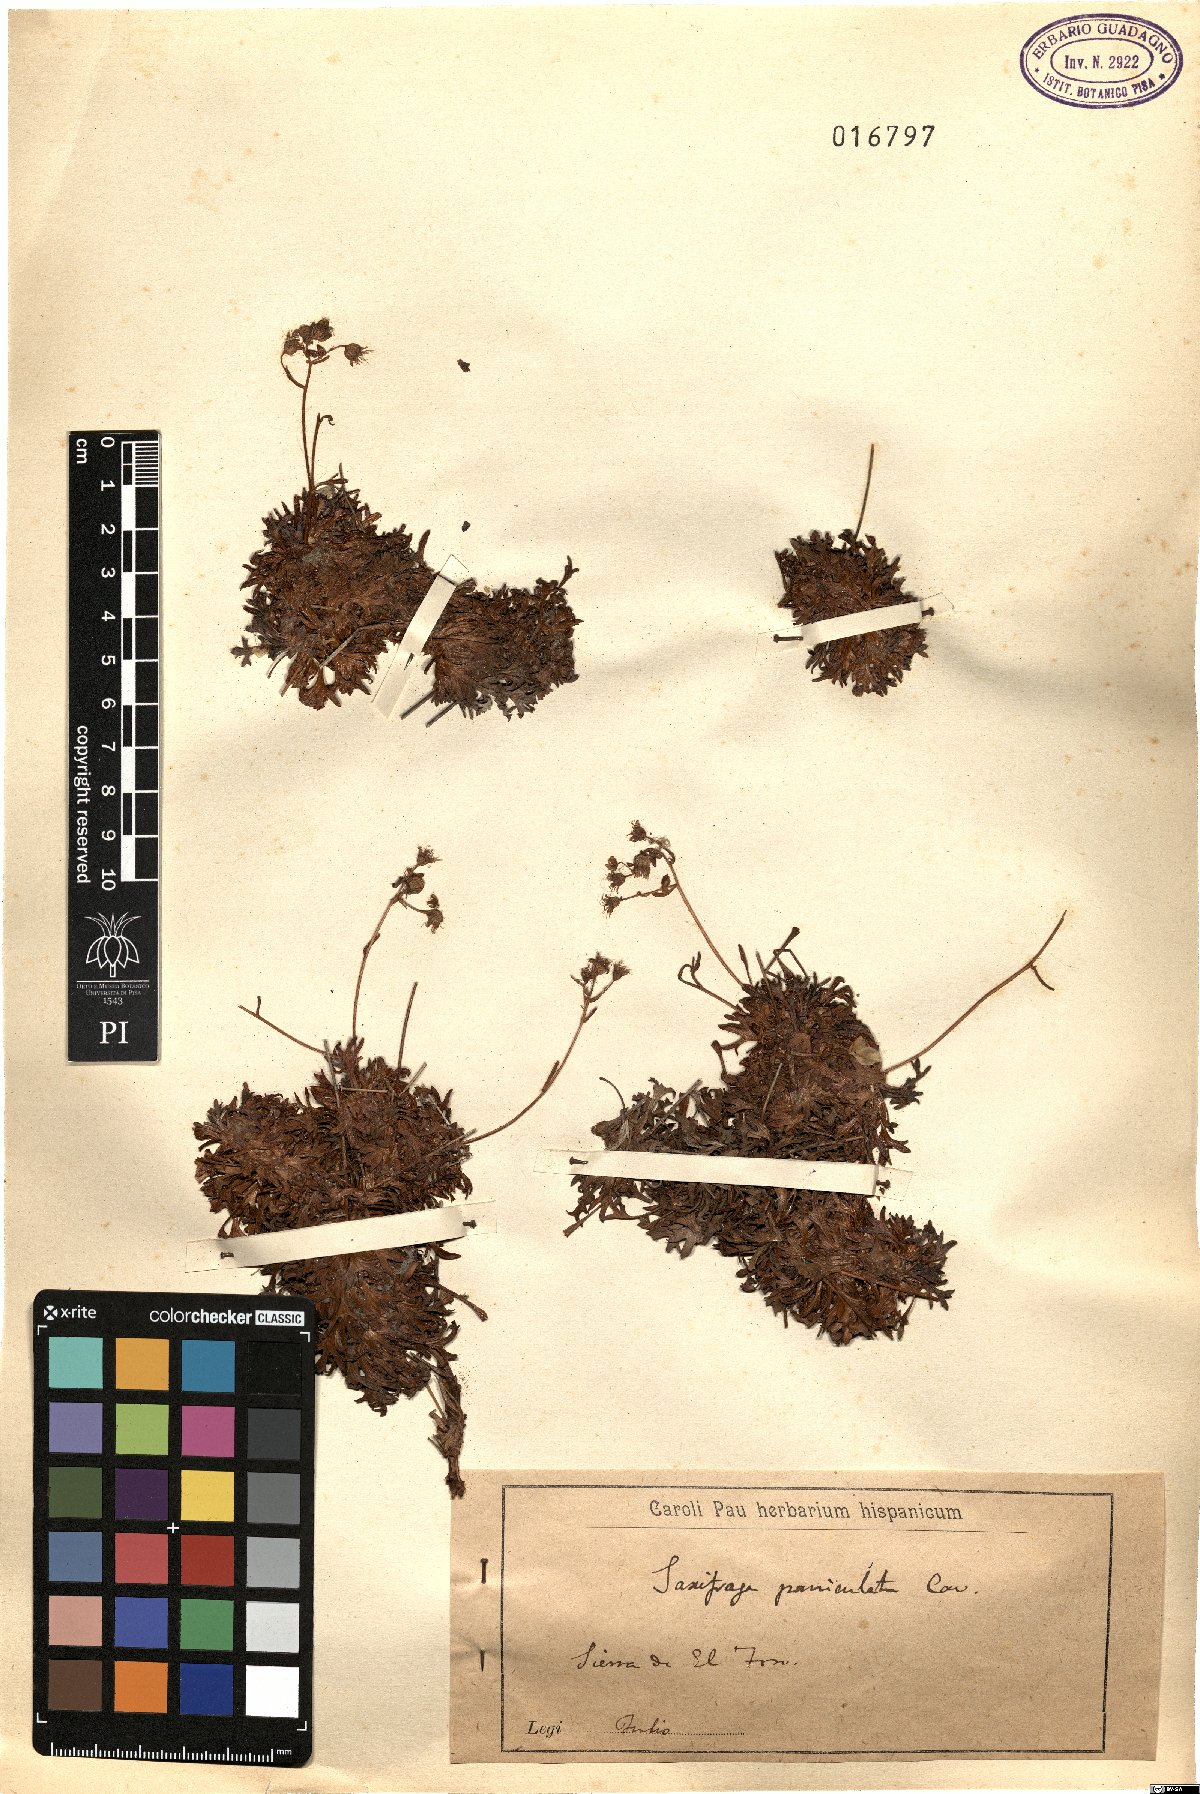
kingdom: Plantae
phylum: Tracheophyta
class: Magnoliopsida
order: Saxifragales
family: Saxifragaceae
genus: Saxifraga
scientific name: Saxifraga paniculata
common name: Livelong saxifrage
